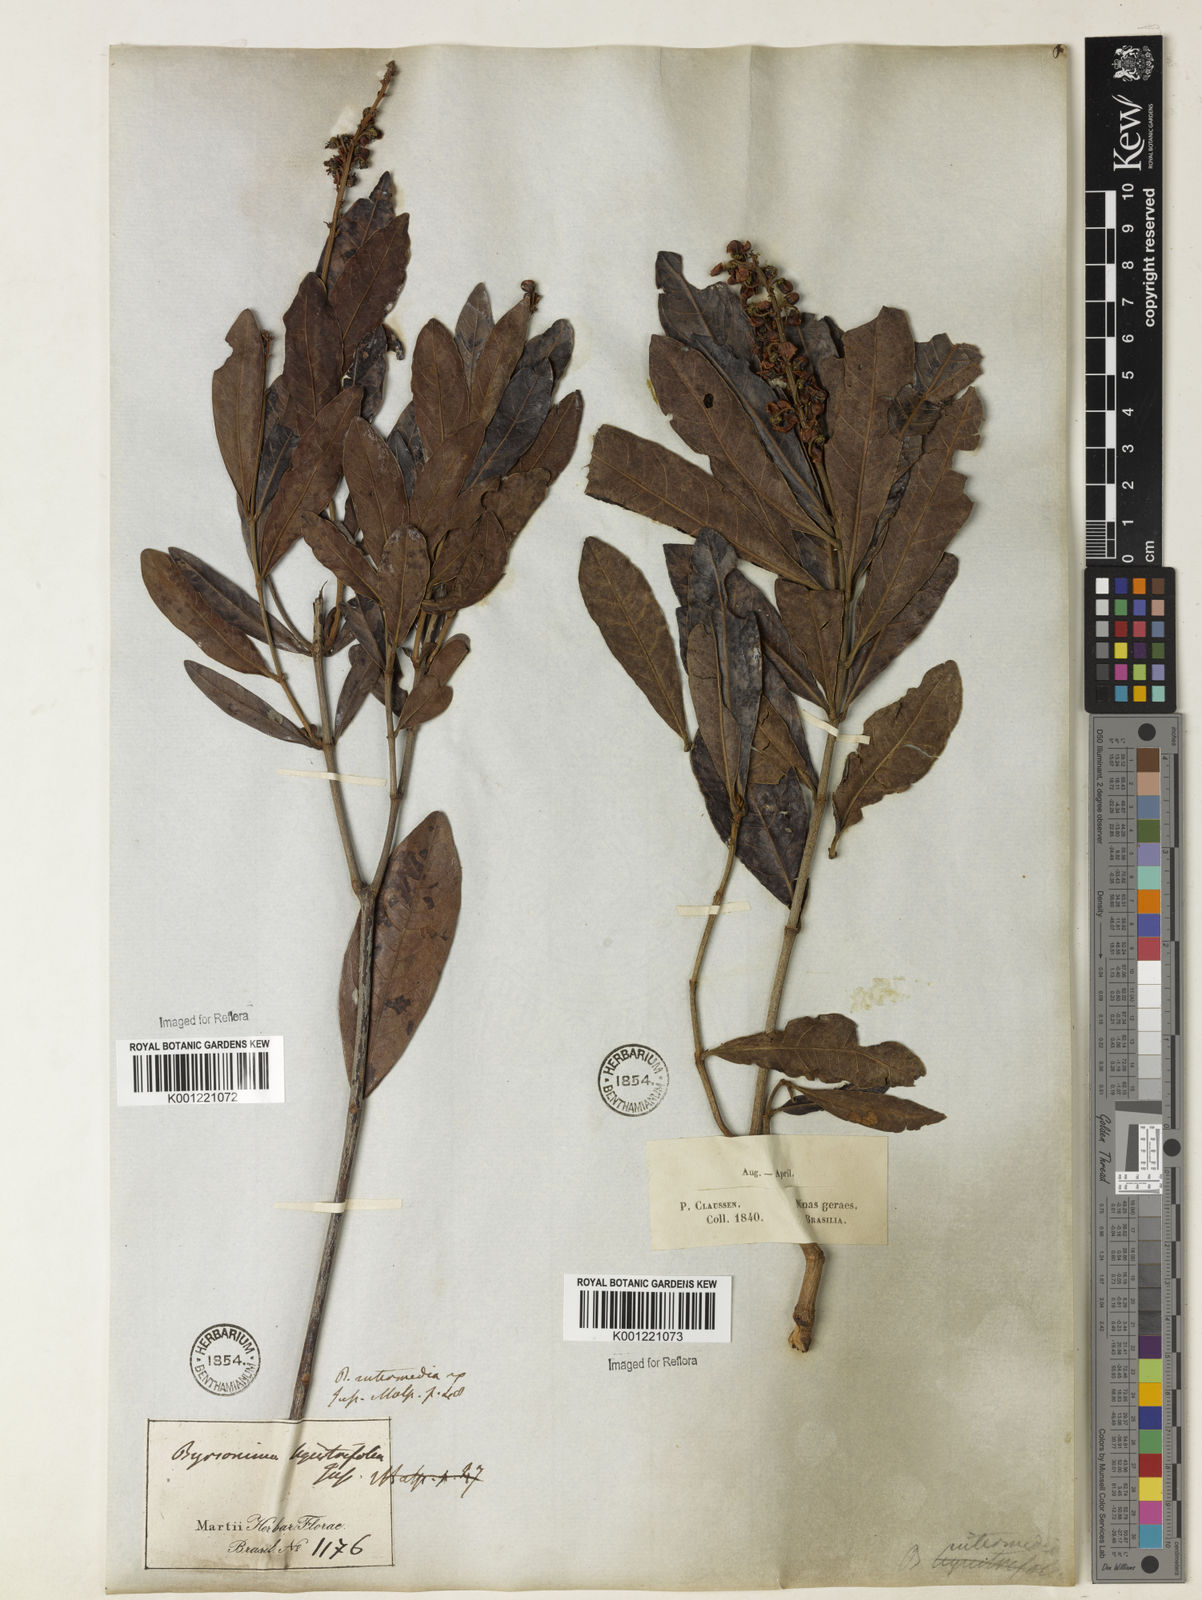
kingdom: Plantae
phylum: Tracheophyta
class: Magnoliopsida
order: Malpighiales
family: Malpighiaceae
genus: Byrsonima
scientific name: Byrsonima intermedia
